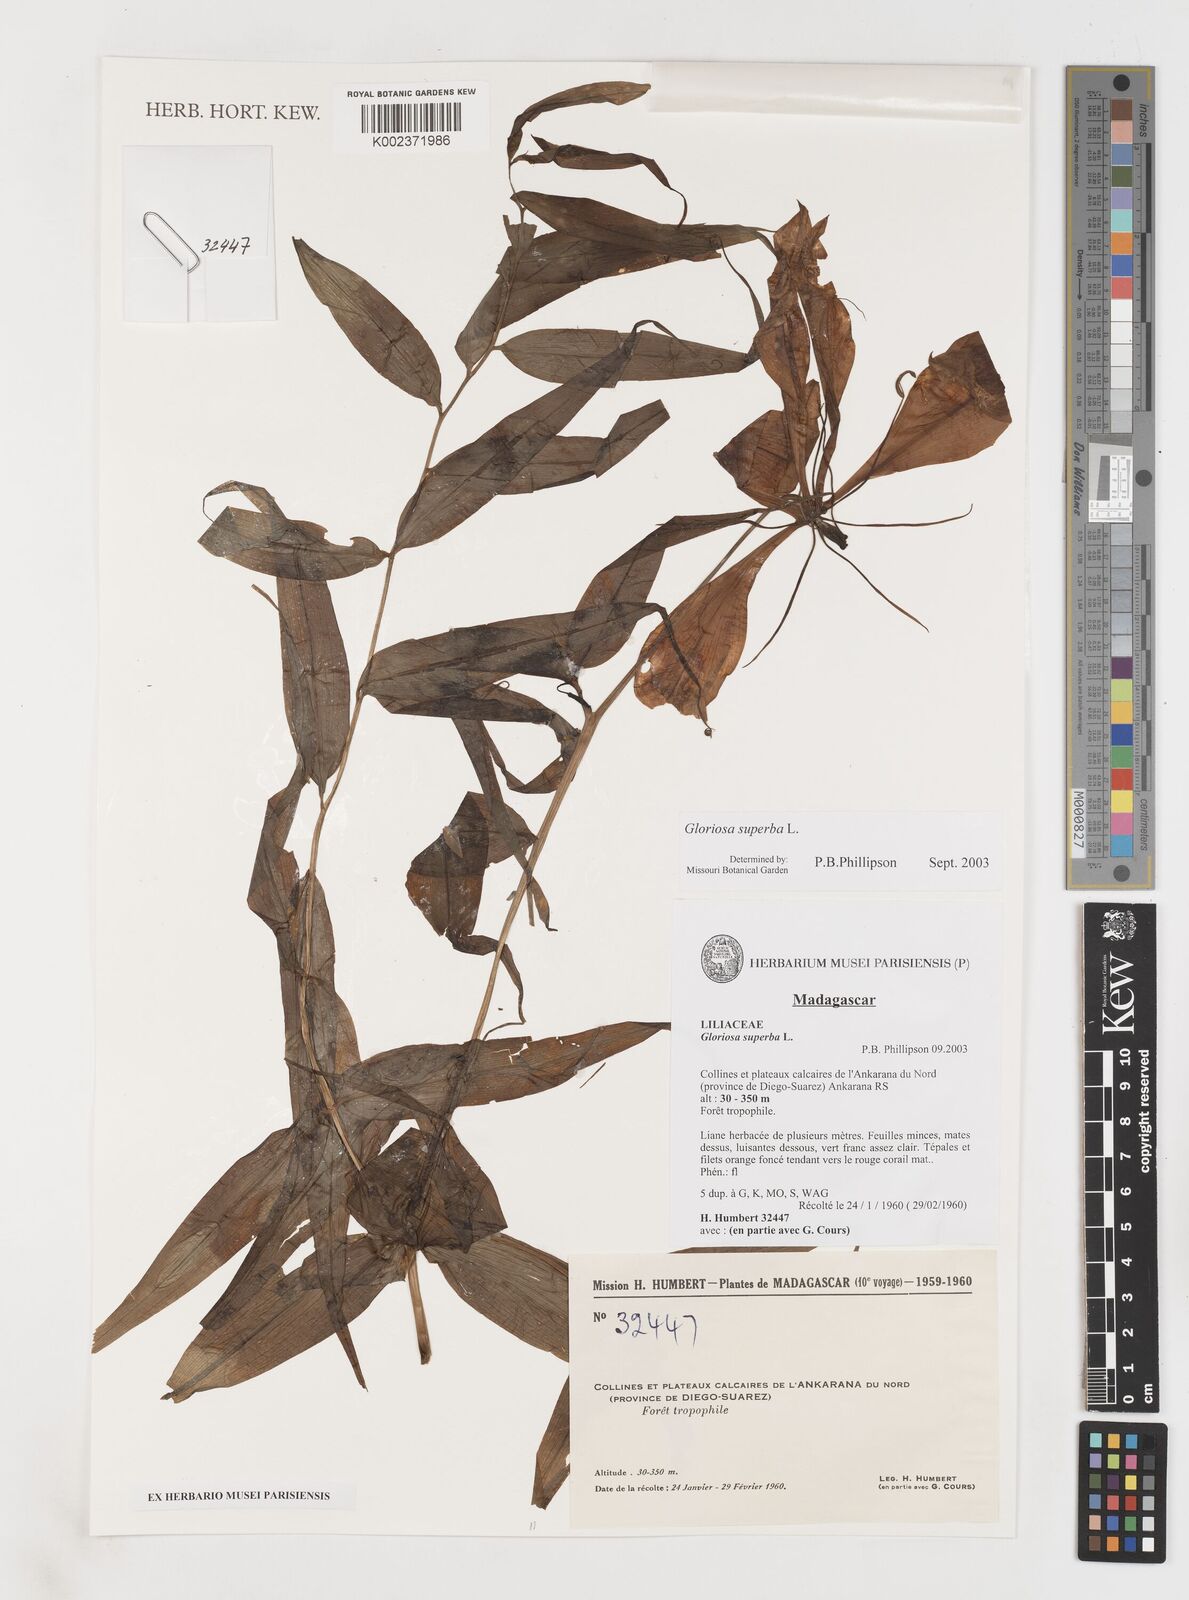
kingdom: Plantae
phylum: Tracheophyta
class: Liliopsida
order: Liliales
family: Colchicaceae
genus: Gloriosa
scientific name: Gloriosa simplex
